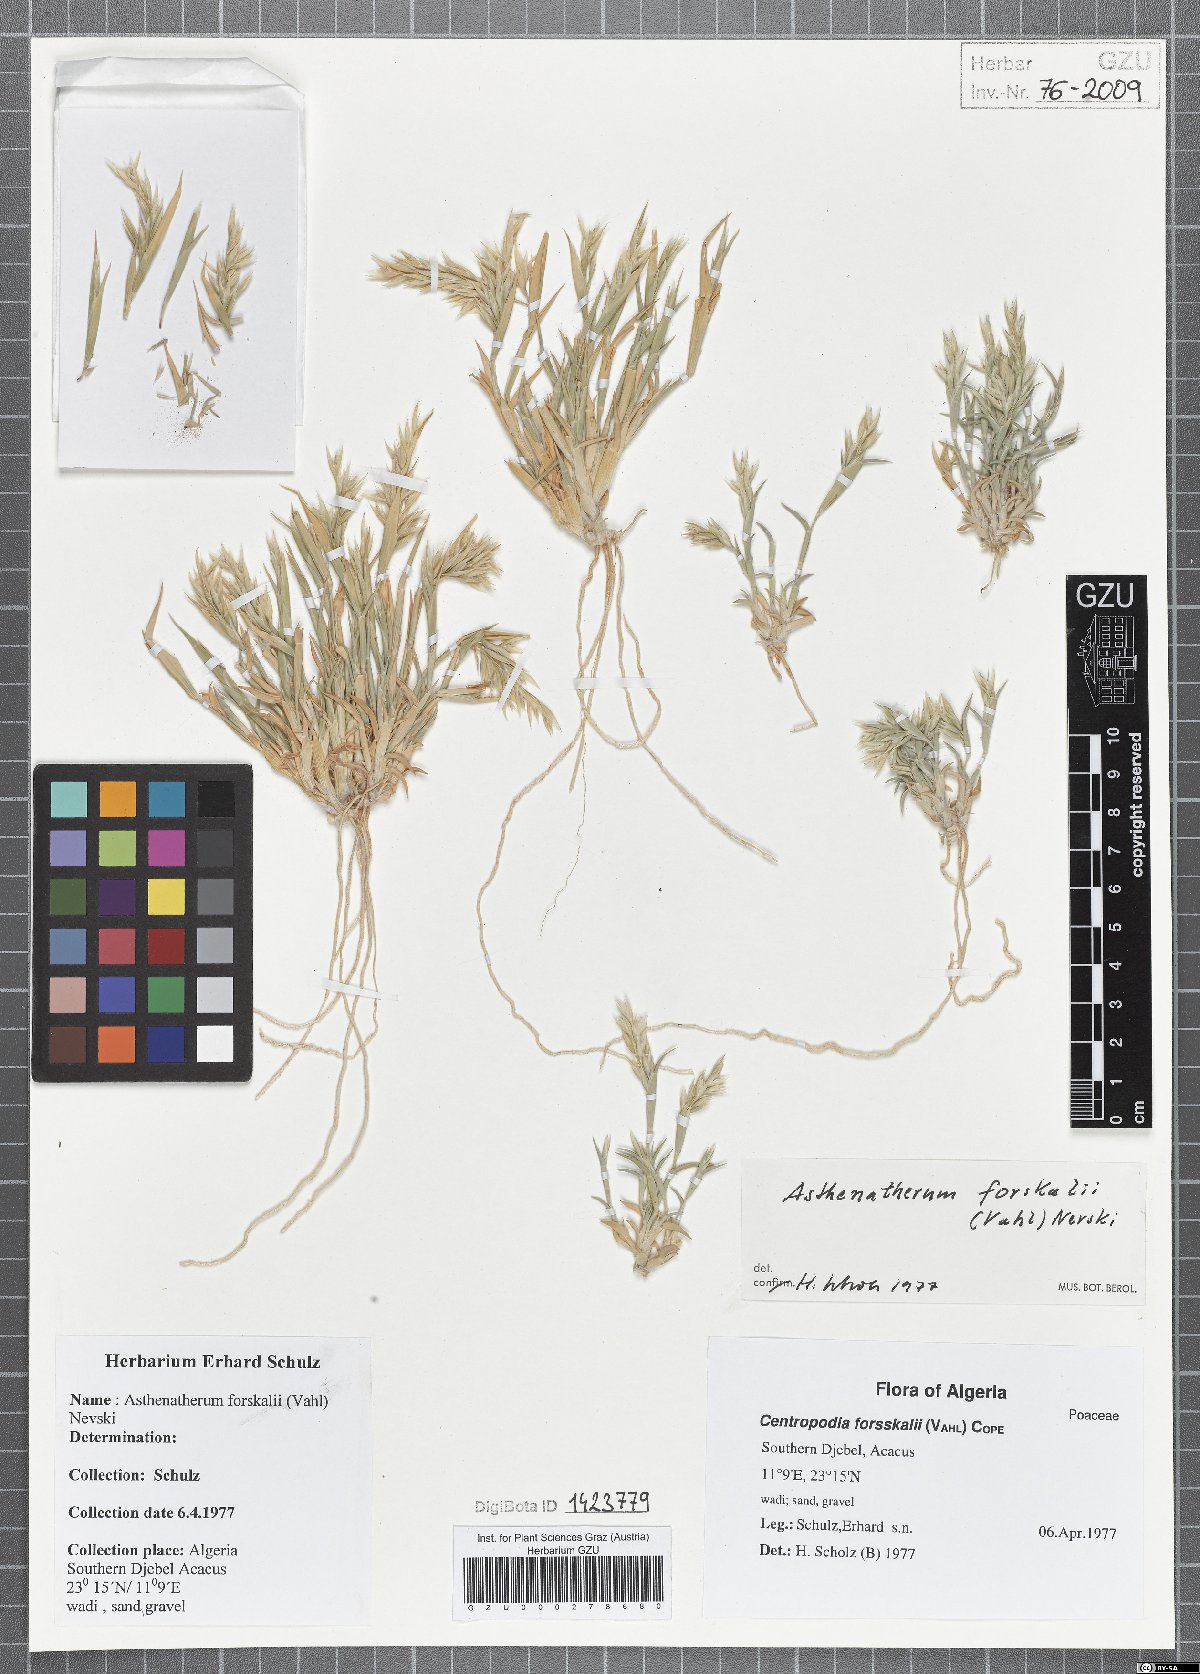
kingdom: Plantae
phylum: Tracheophyta
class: Liliopsida
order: Poales
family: Poaceae
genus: Centropodia
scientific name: Centropodia forsskalii
